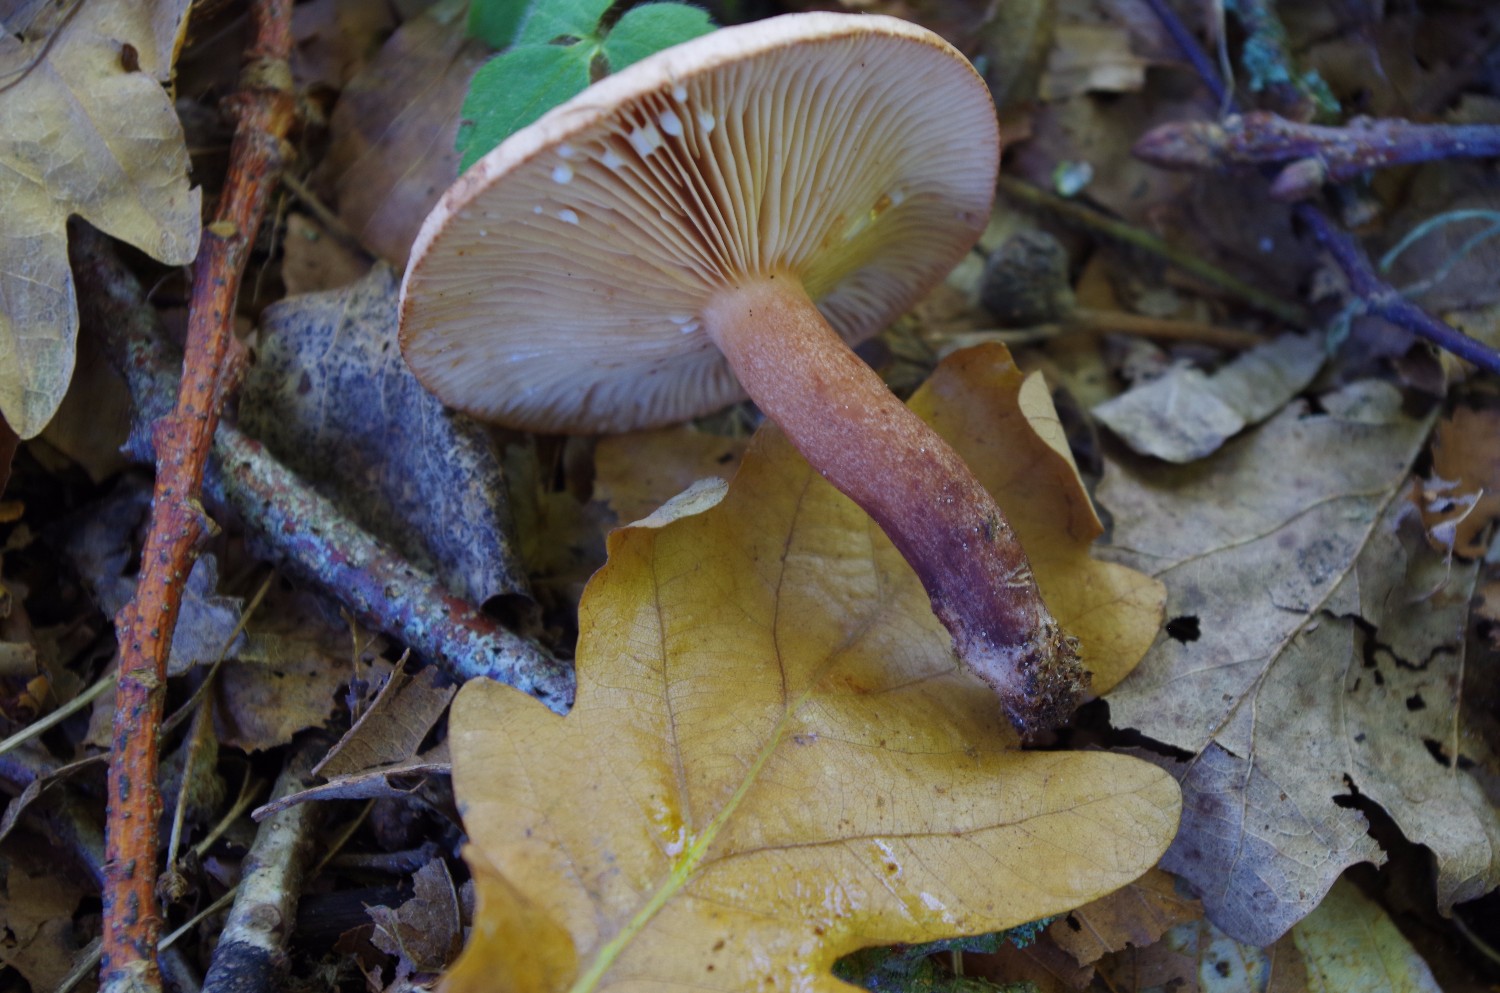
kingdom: Fungi
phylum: Basidiomycota
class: Agaricomycetes
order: Russulales
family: Russulaceae
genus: Lactarius
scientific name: Lactarius quietus
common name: ege-mælkehat
